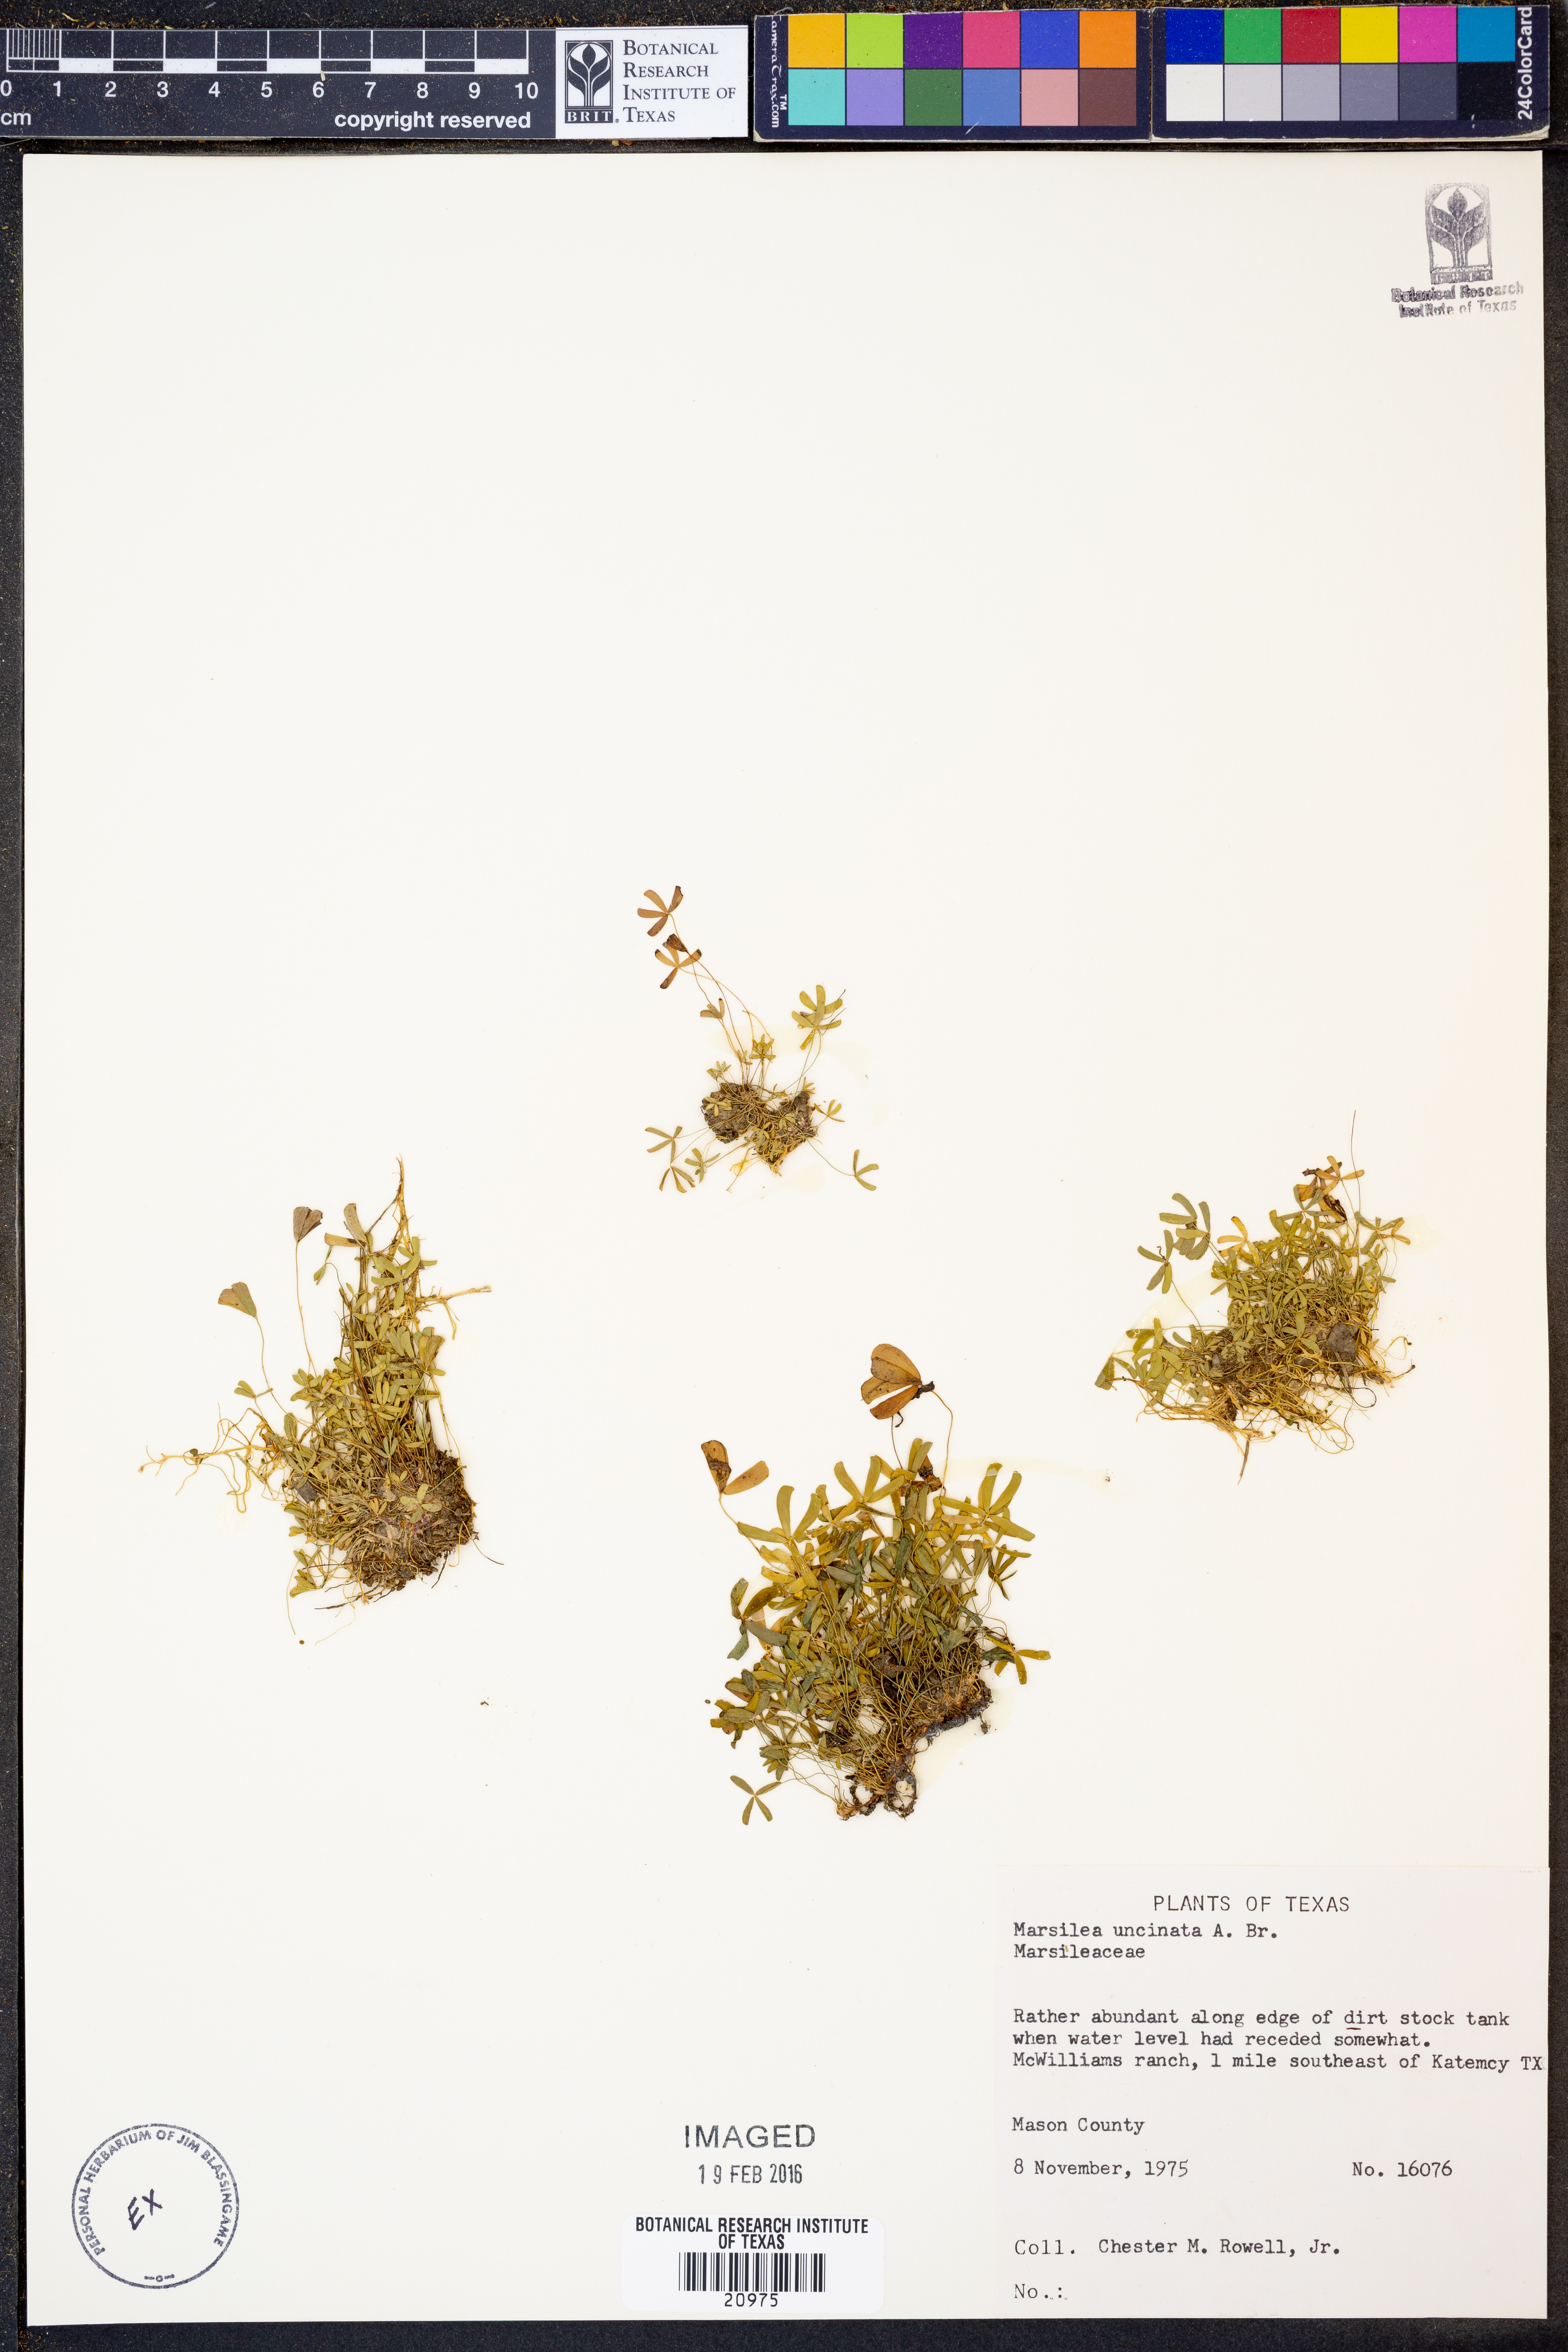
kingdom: Plantae
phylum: Tracheophyta
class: Polypodiopsida
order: Salviniales
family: Marsileaceae
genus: Marsilea
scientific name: Marsilea vestita
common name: Hooked-pepperwort
